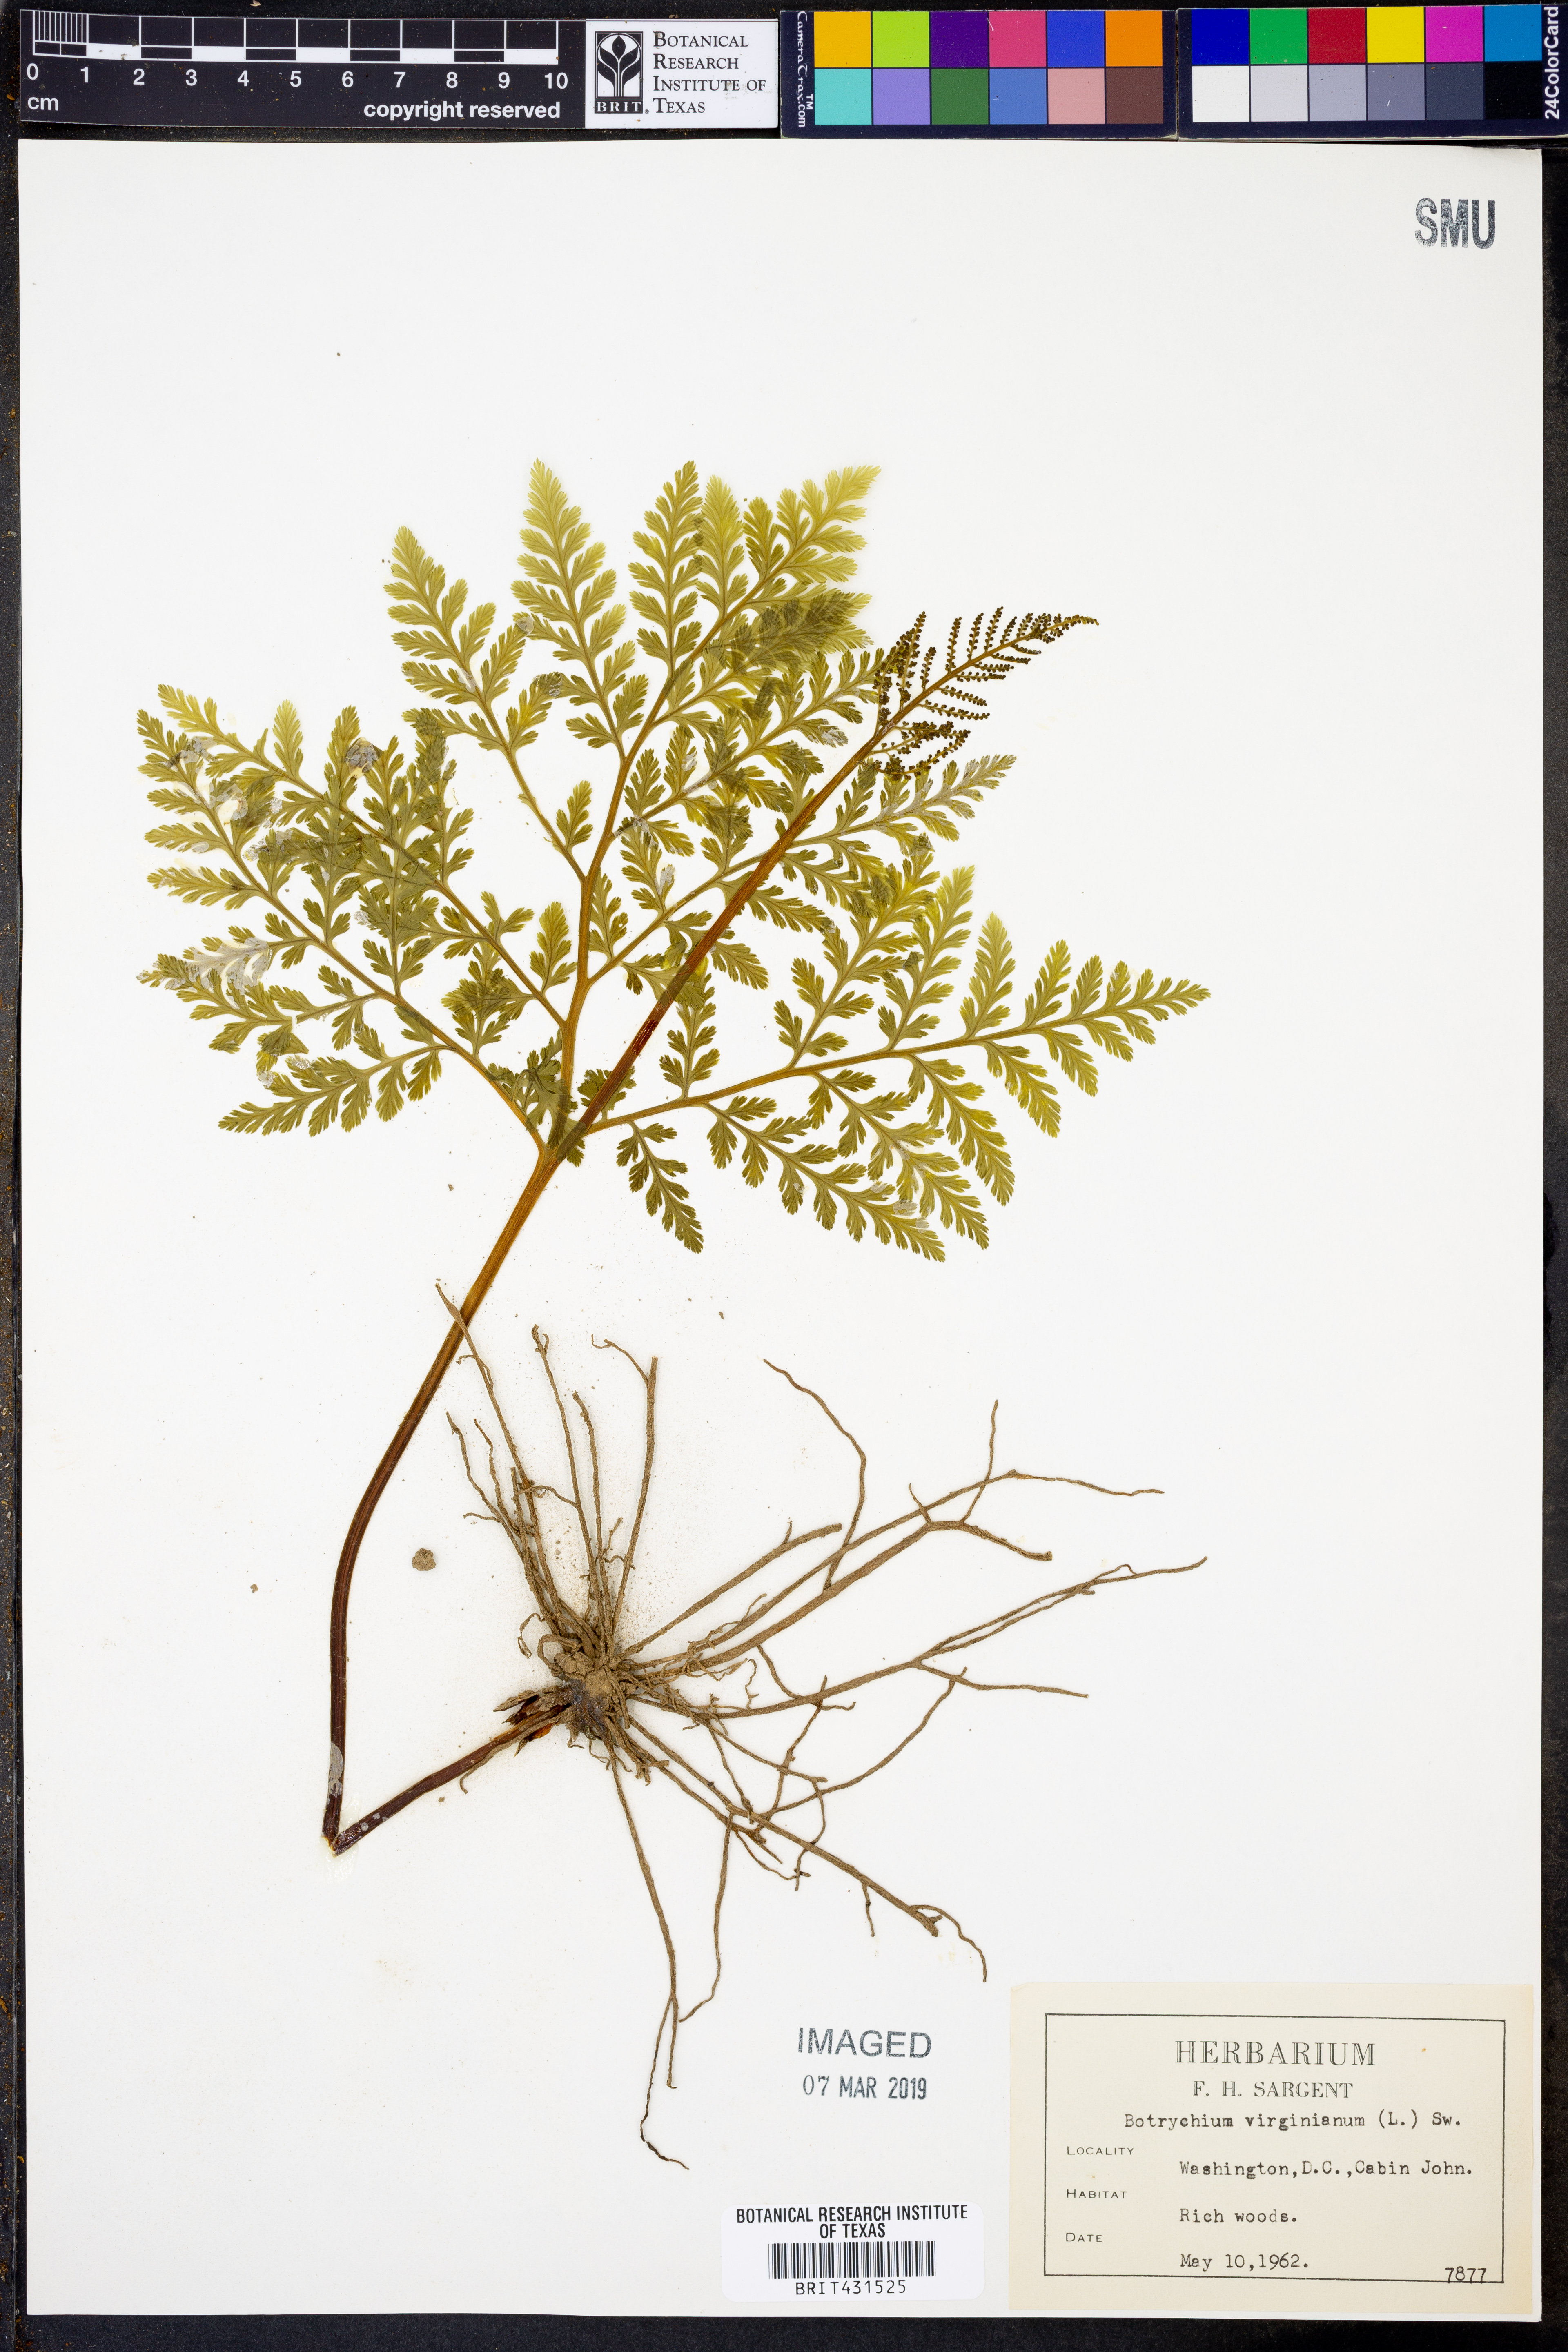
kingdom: Plantae
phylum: Tracheophyta
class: Polypodiopsida
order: Ophioglossales
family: Ophioglossaceae
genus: Botrypus
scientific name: Botrypus virginianus
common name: Common grapefern
